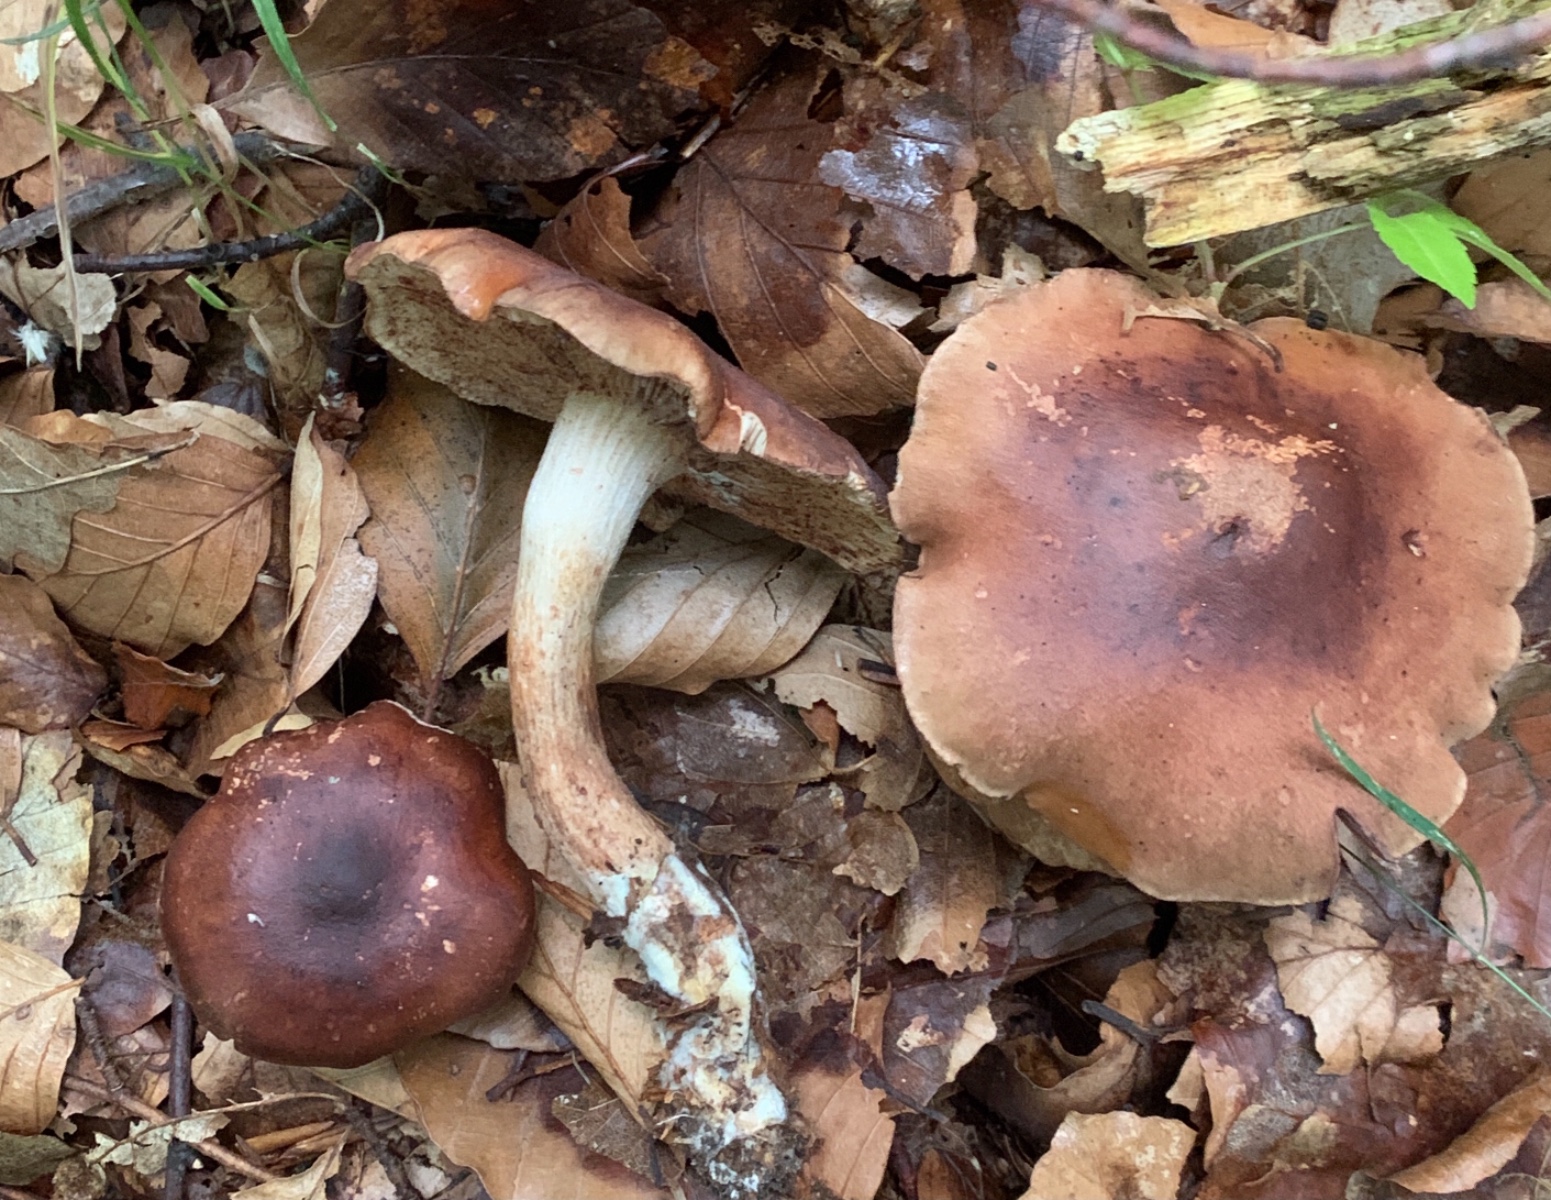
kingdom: Fungi
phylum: Basidiomycota
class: Agaricomycetes
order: Agaricales
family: Tricholomataceae
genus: Tricholoma
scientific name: Tricholoma ustale
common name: sveden ridderhat
